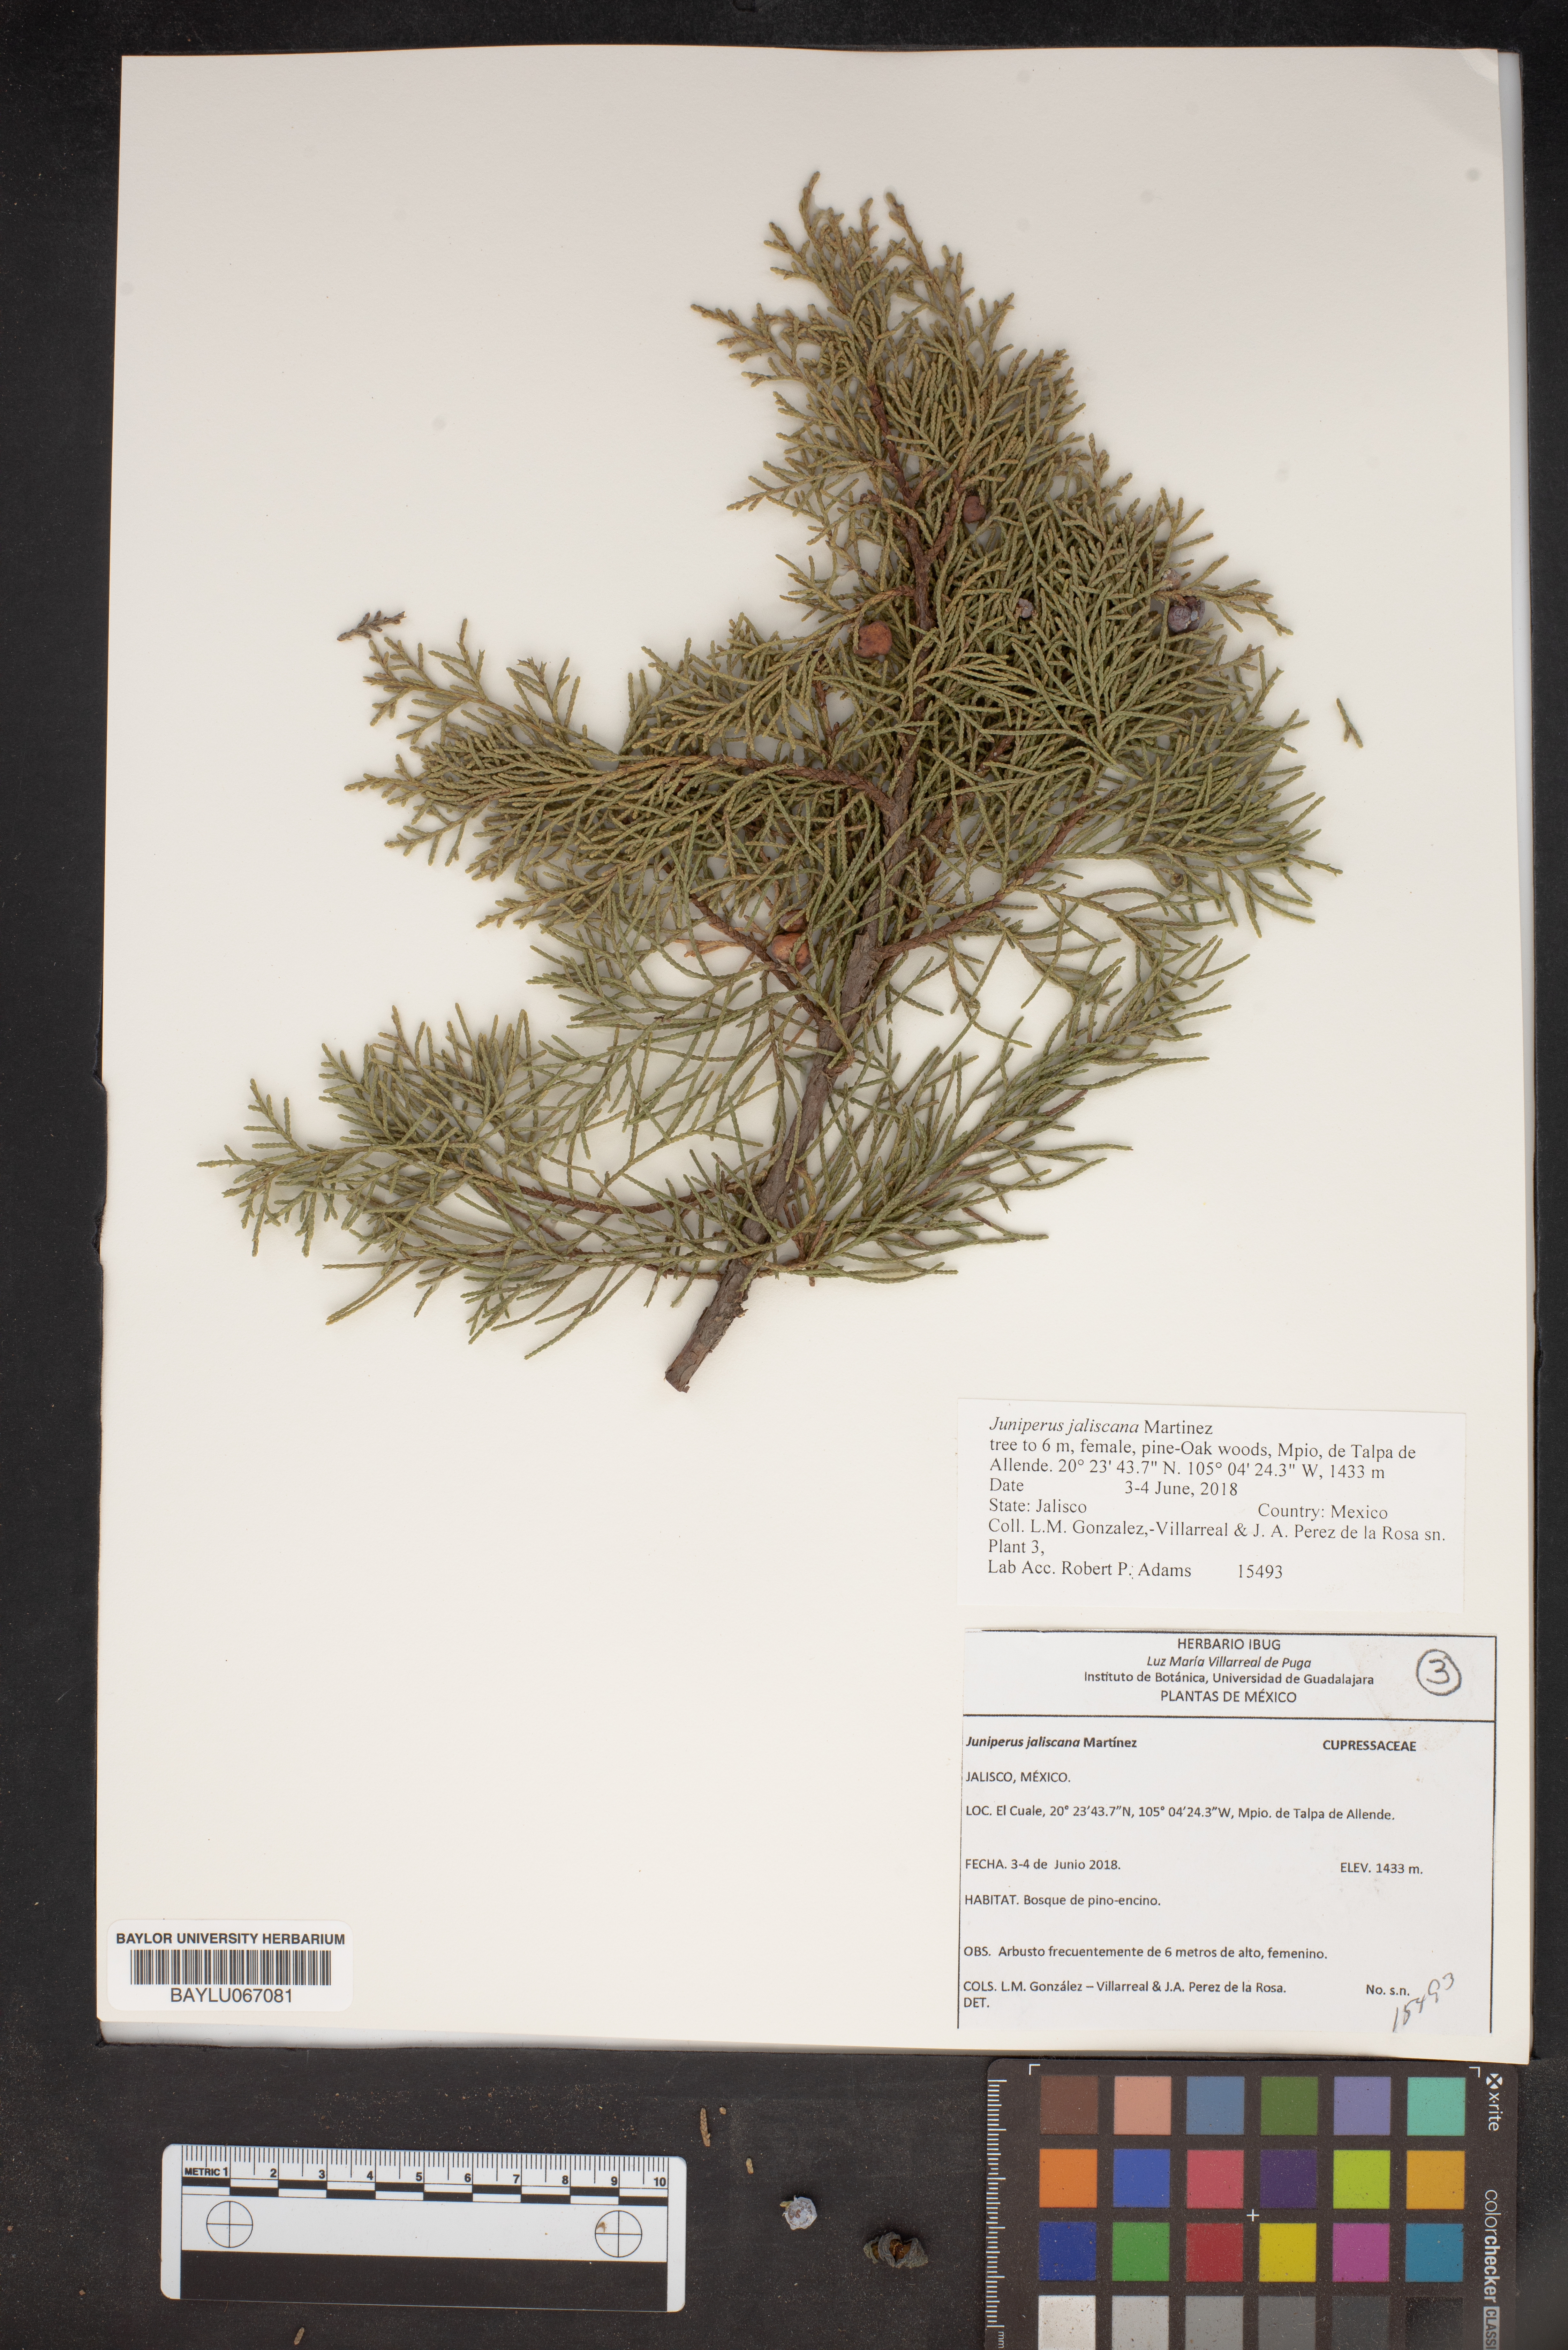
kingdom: Plantae
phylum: Tracheophyta
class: Pinopsida
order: Pinales
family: Cupressaceae
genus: Juniperus
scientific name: Juniperus jaliscana
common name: Jalisco juniper
